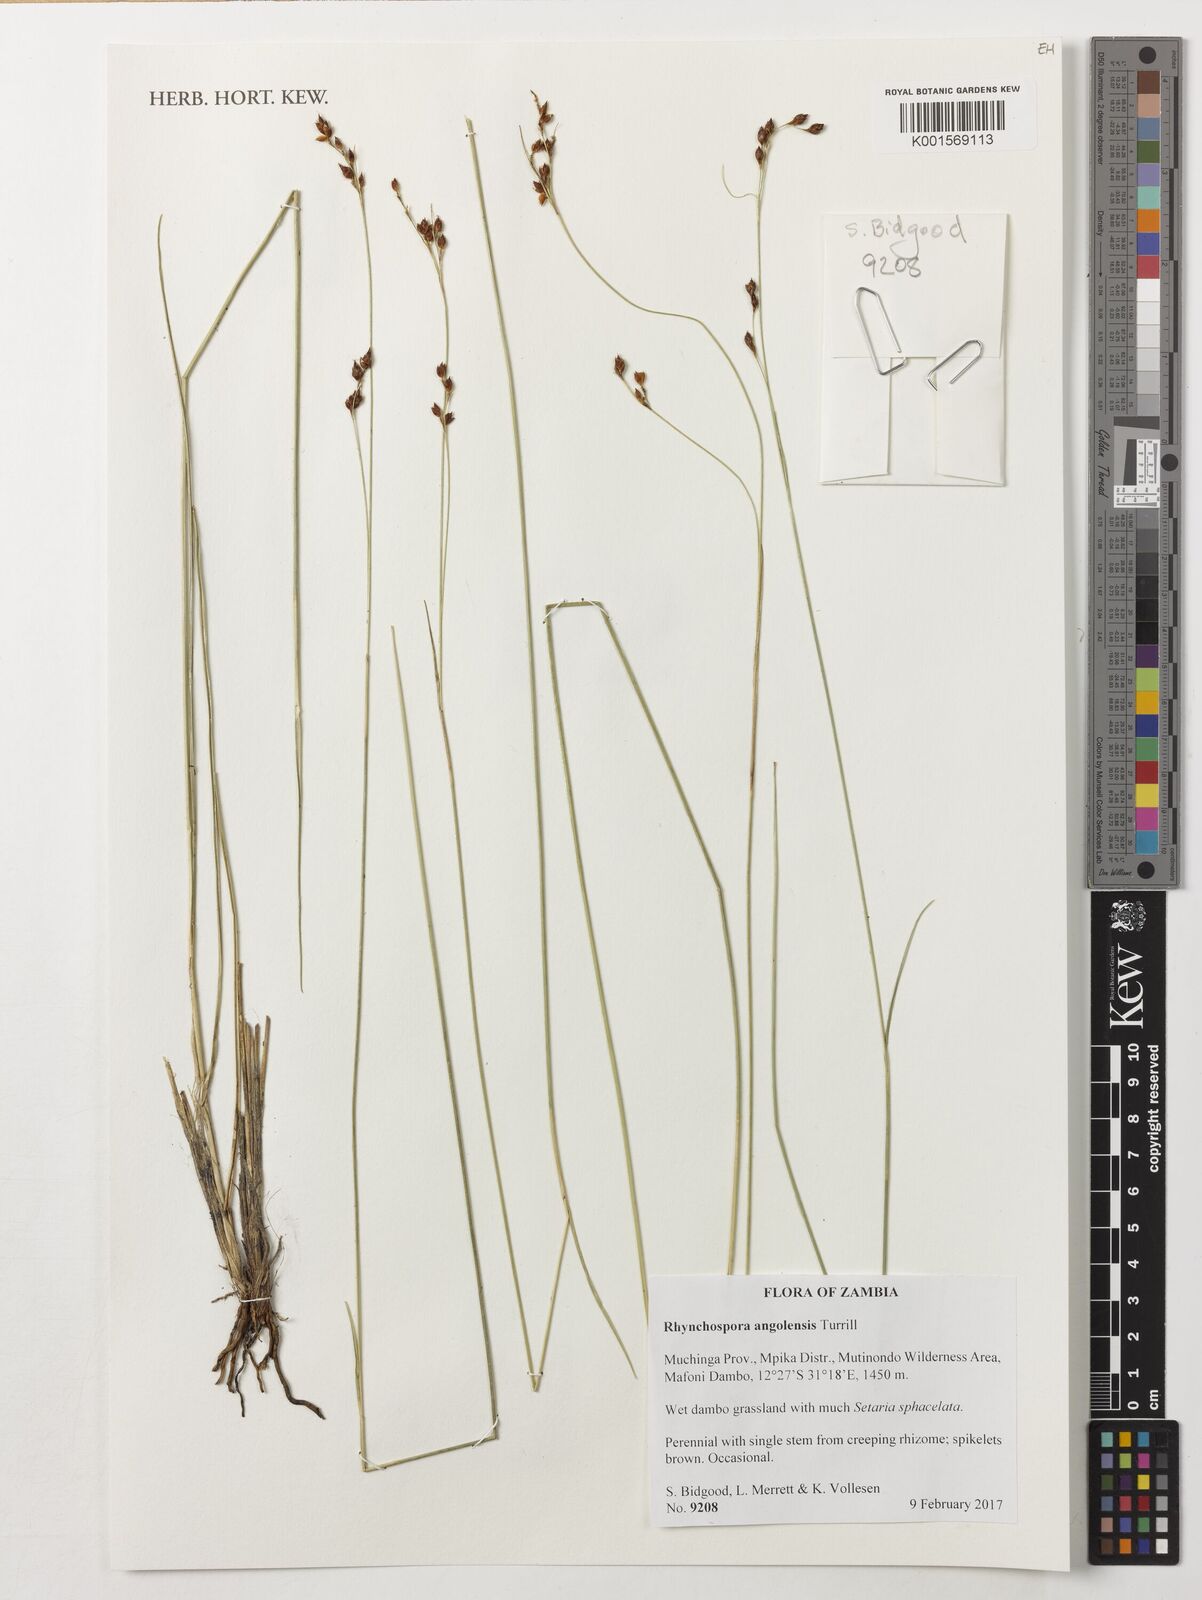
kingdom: Plantae
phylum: Tracheophyta
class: Liliopsida
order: Poales
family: Cyperaceae
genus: Rhynchospora
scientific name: Rhynchospora angolensis
